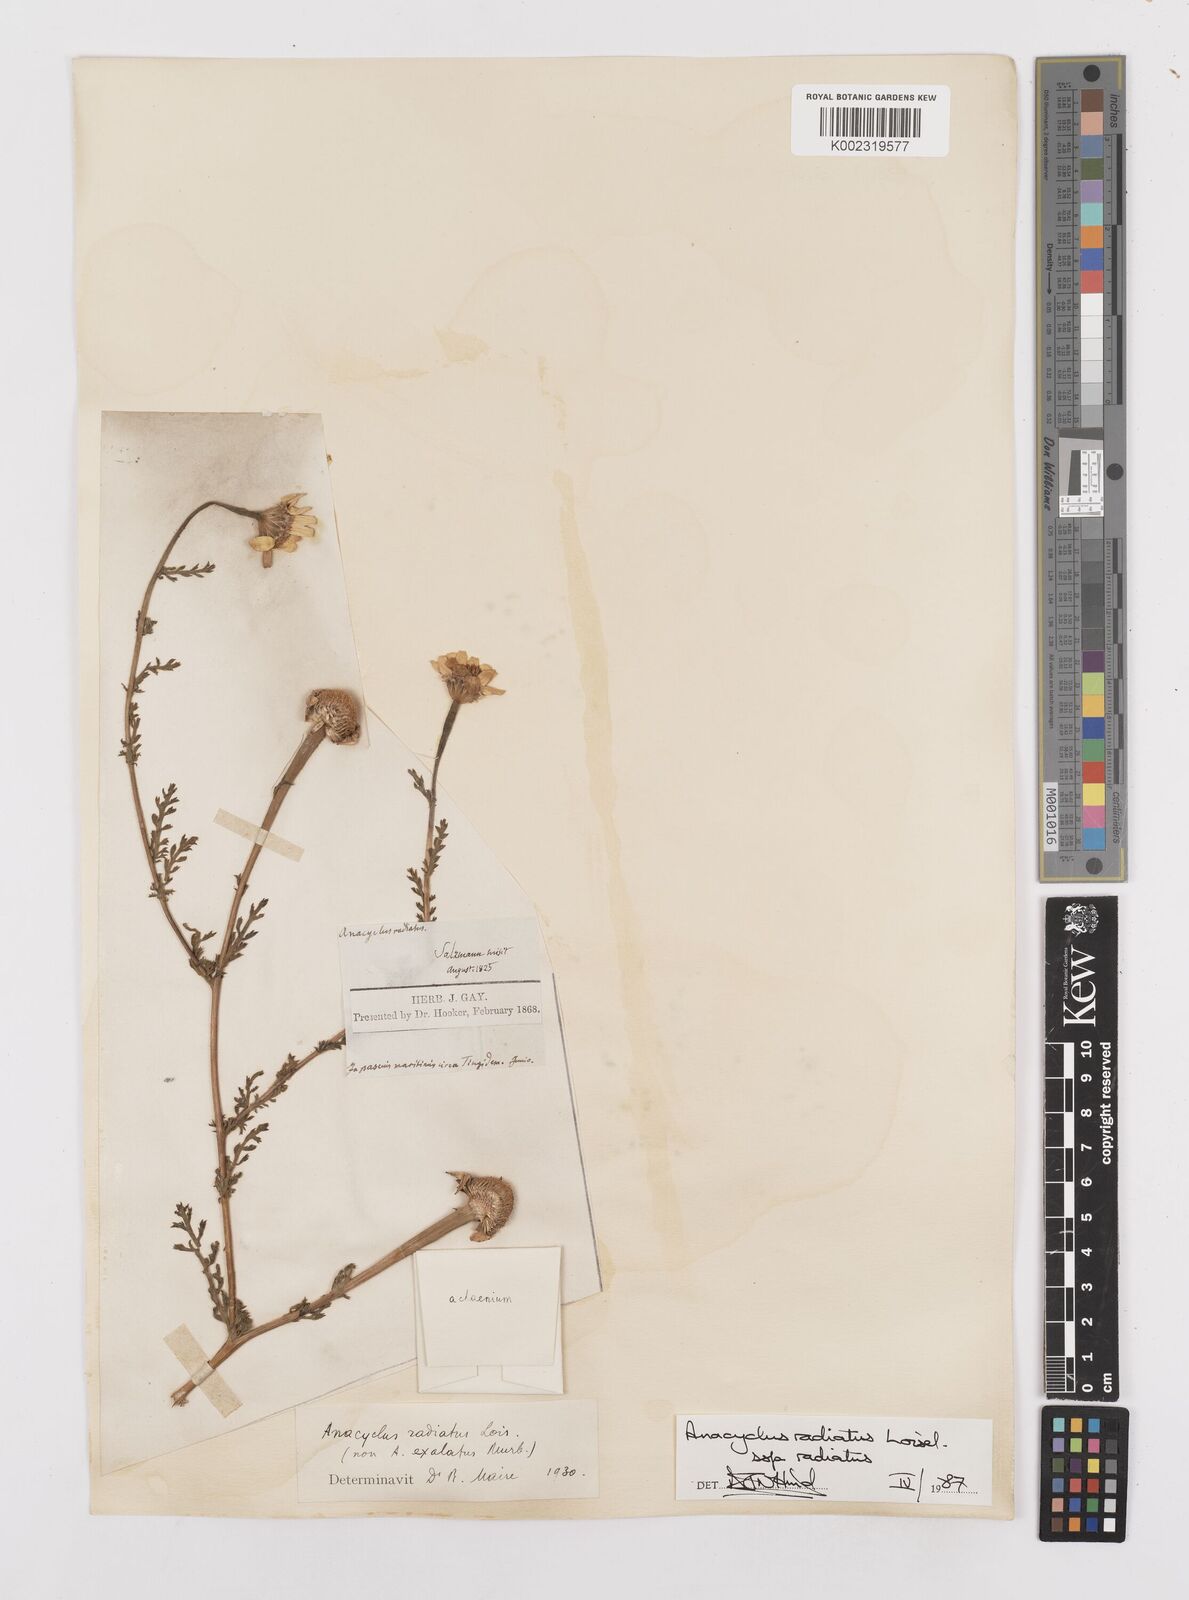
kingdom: Plantae
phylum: Tracheophyta
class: Magnoliopsida
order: Asterales
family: Asteraceae
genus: Anacyclus
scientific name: Anacyclus radiatus
